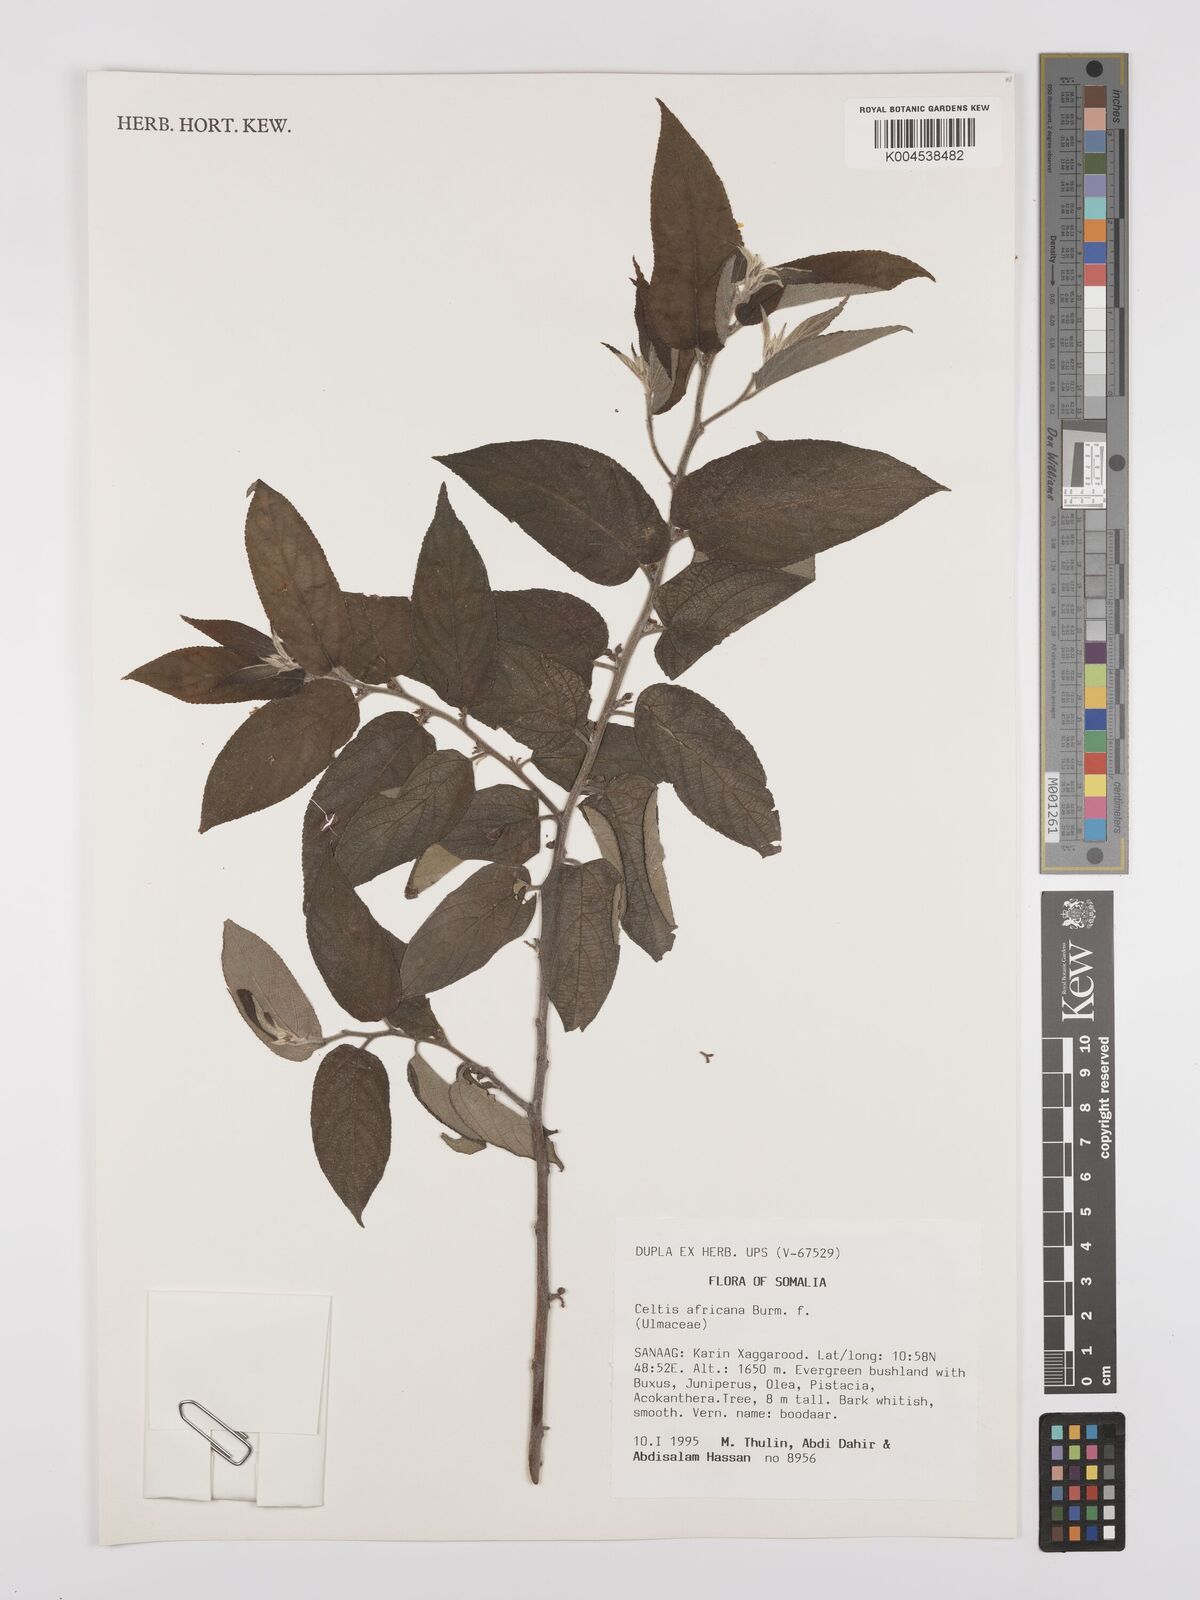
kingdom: Plantae
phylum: Tracheophyta
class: Magnoliopsida
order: Rosales
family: Cannabaceae
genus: Celtis
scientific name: Celtis africana
